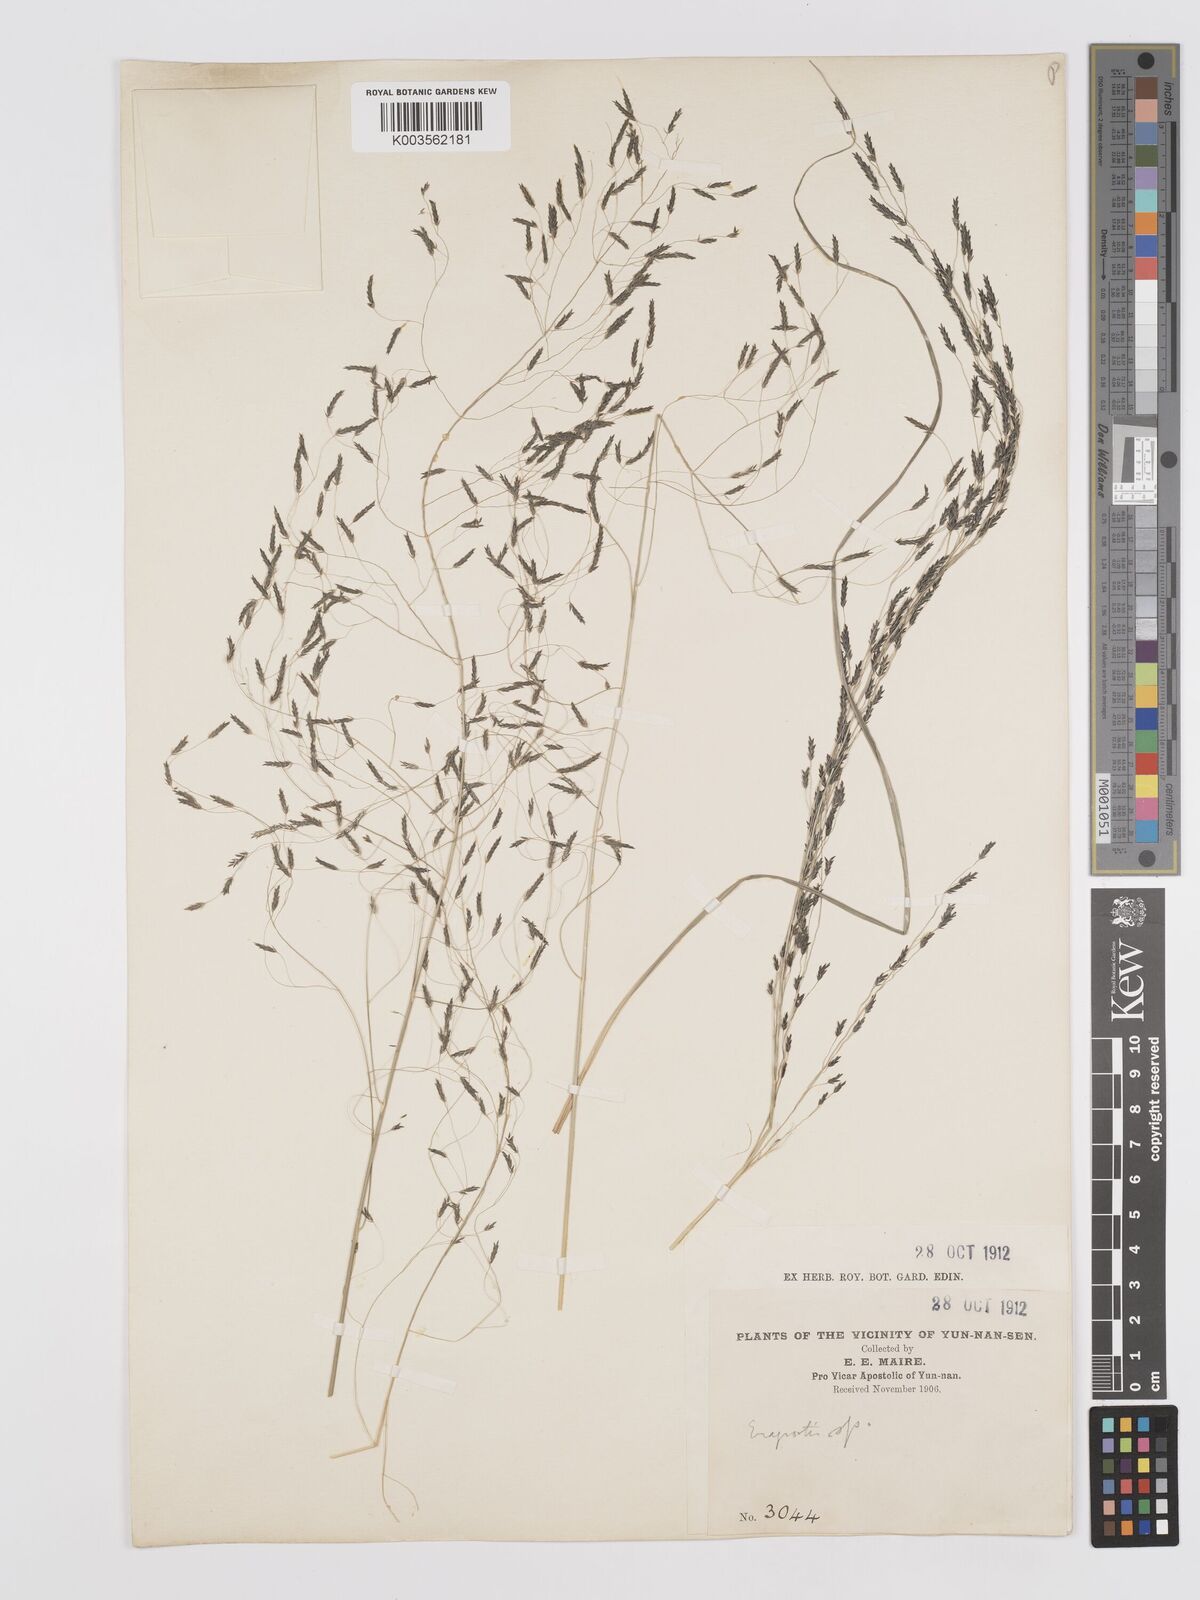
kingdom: Plantae
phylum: Tracheophyta
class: Liliopsida
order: Poales
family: Poaceae
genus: Eragrostis
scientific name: Eragrostis nigra
